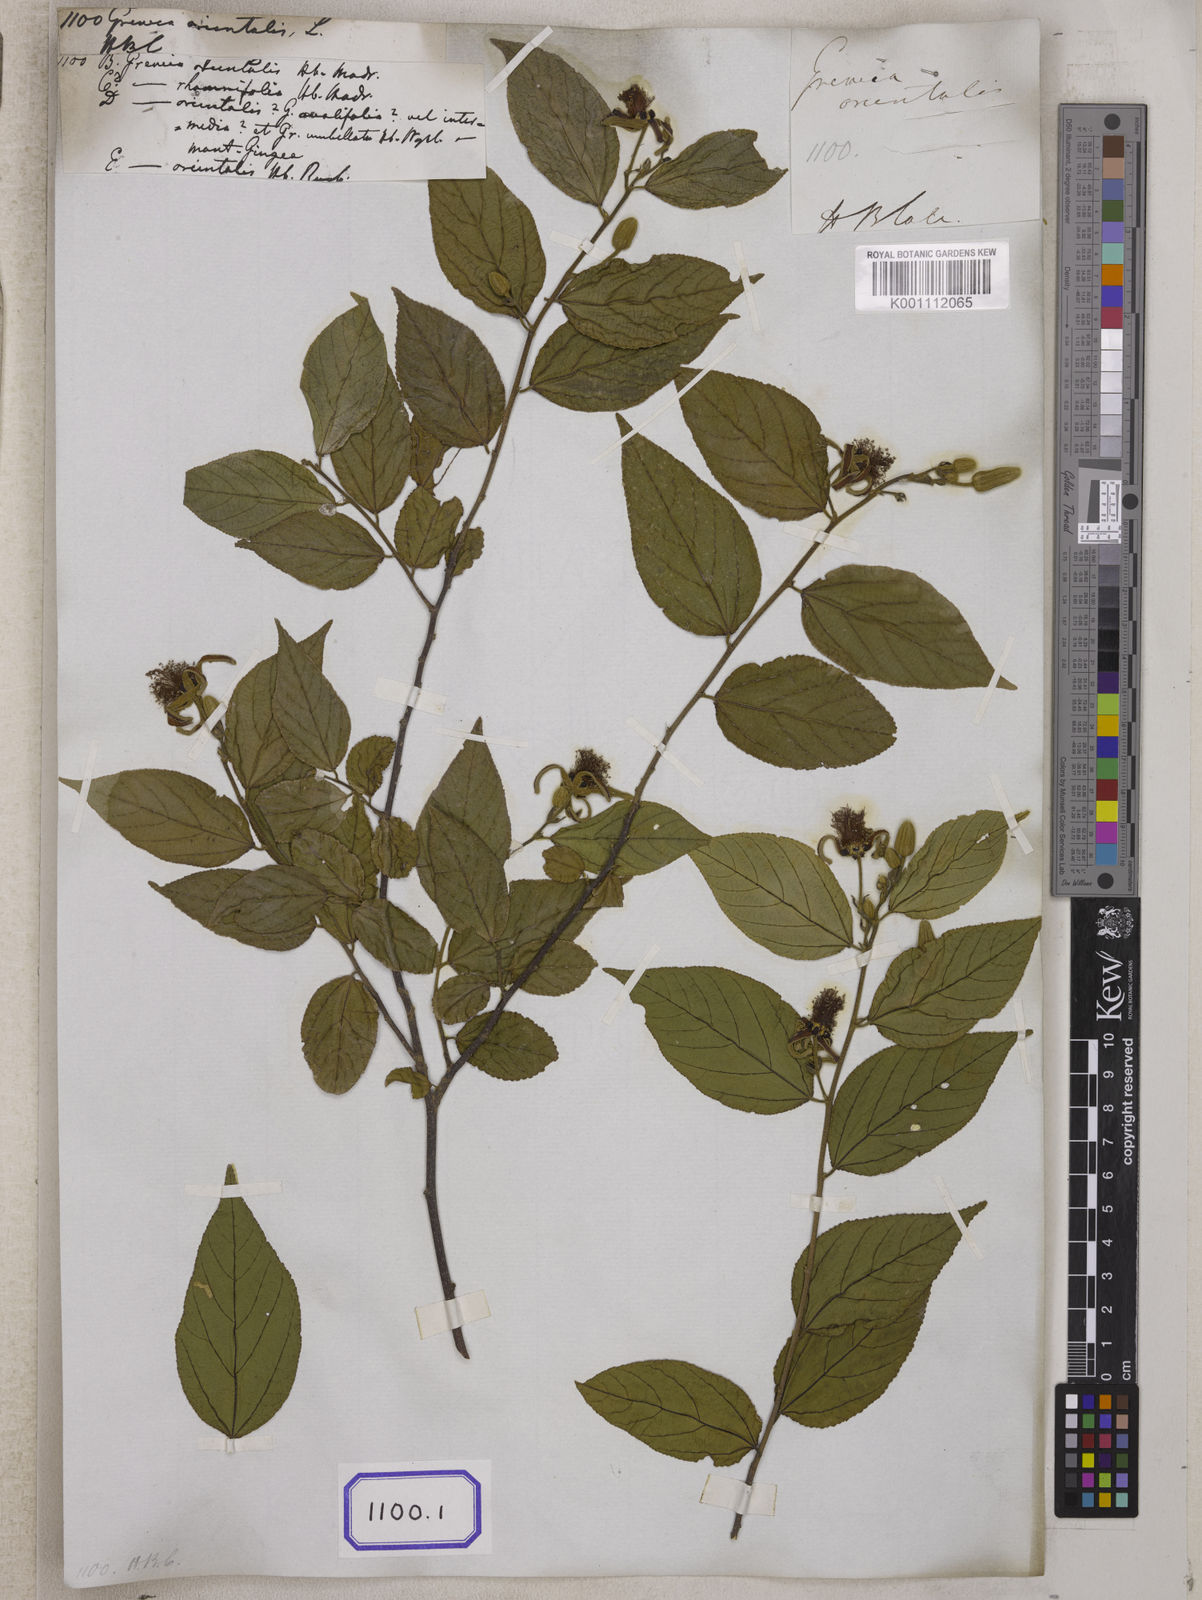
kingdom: Plantae
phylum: Tracheophyta
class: Magnoliopsida
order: Malvales
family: Malvaceae
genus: Grewia
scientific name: Grewia orientalis
